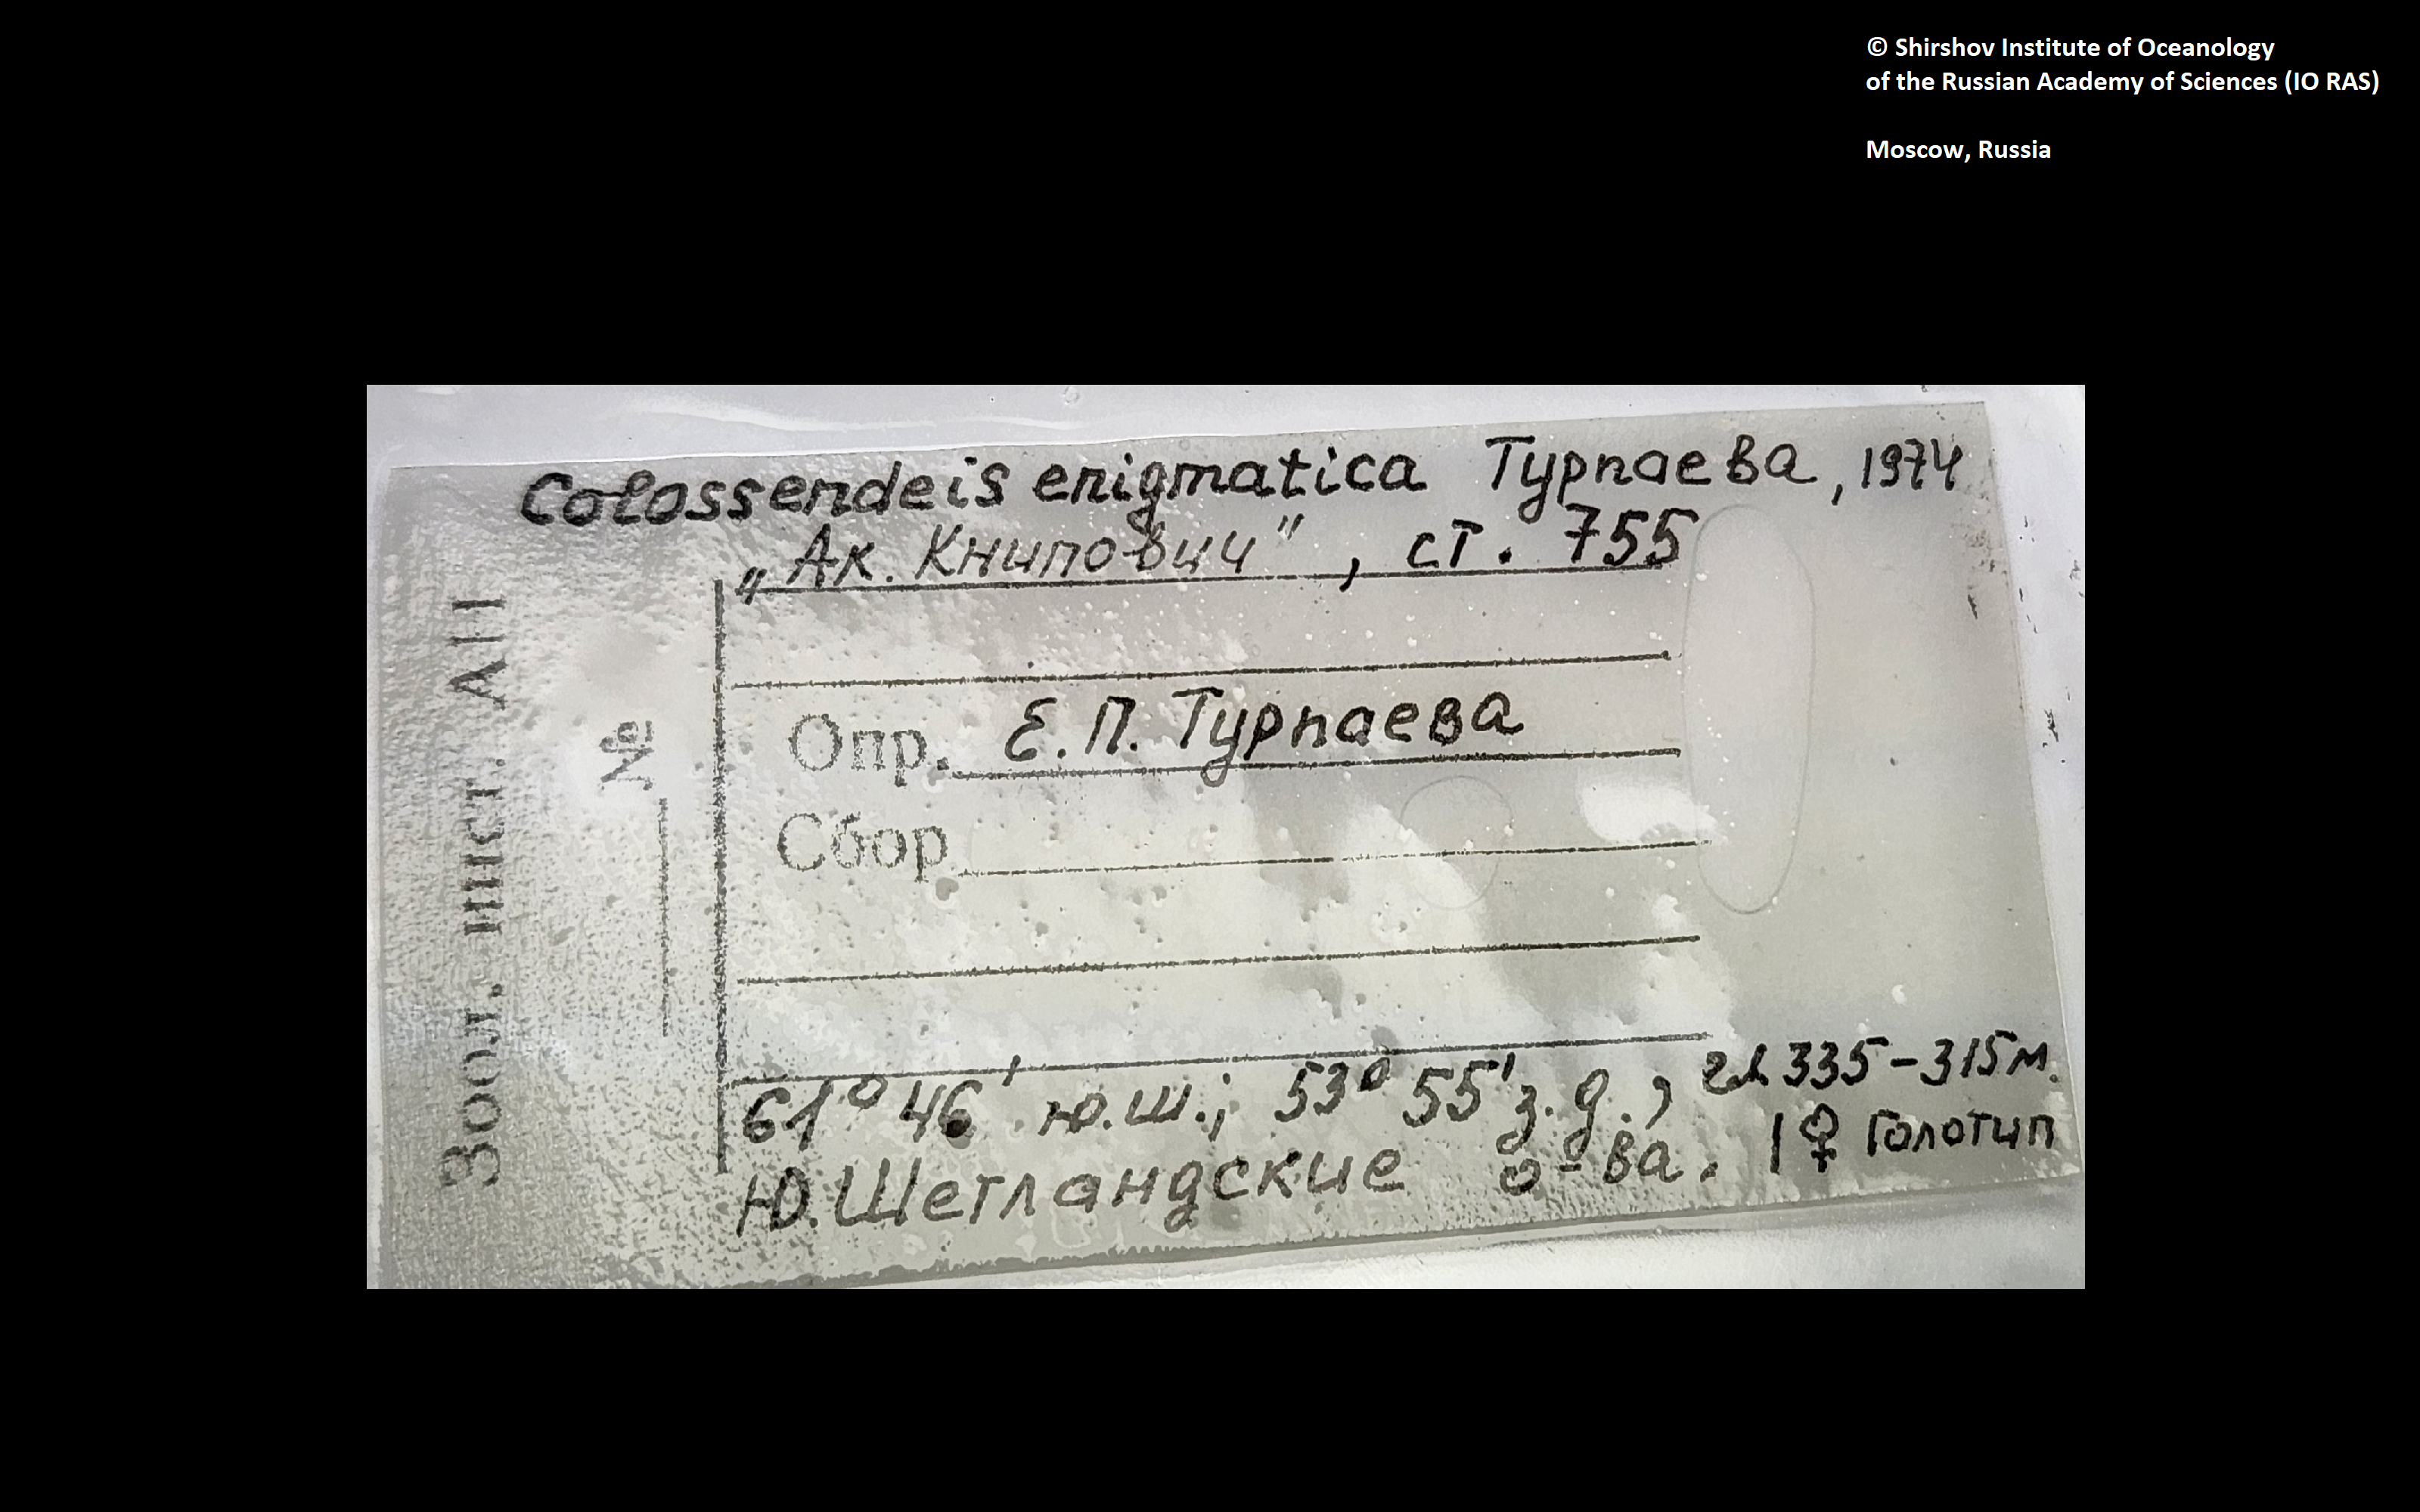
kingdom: Animalia
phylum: Arthropoda
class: Pycnogonida
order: Pantopoda
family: Colossendeidae
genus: Colossendeis
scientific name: Colossendeis enigmatica
